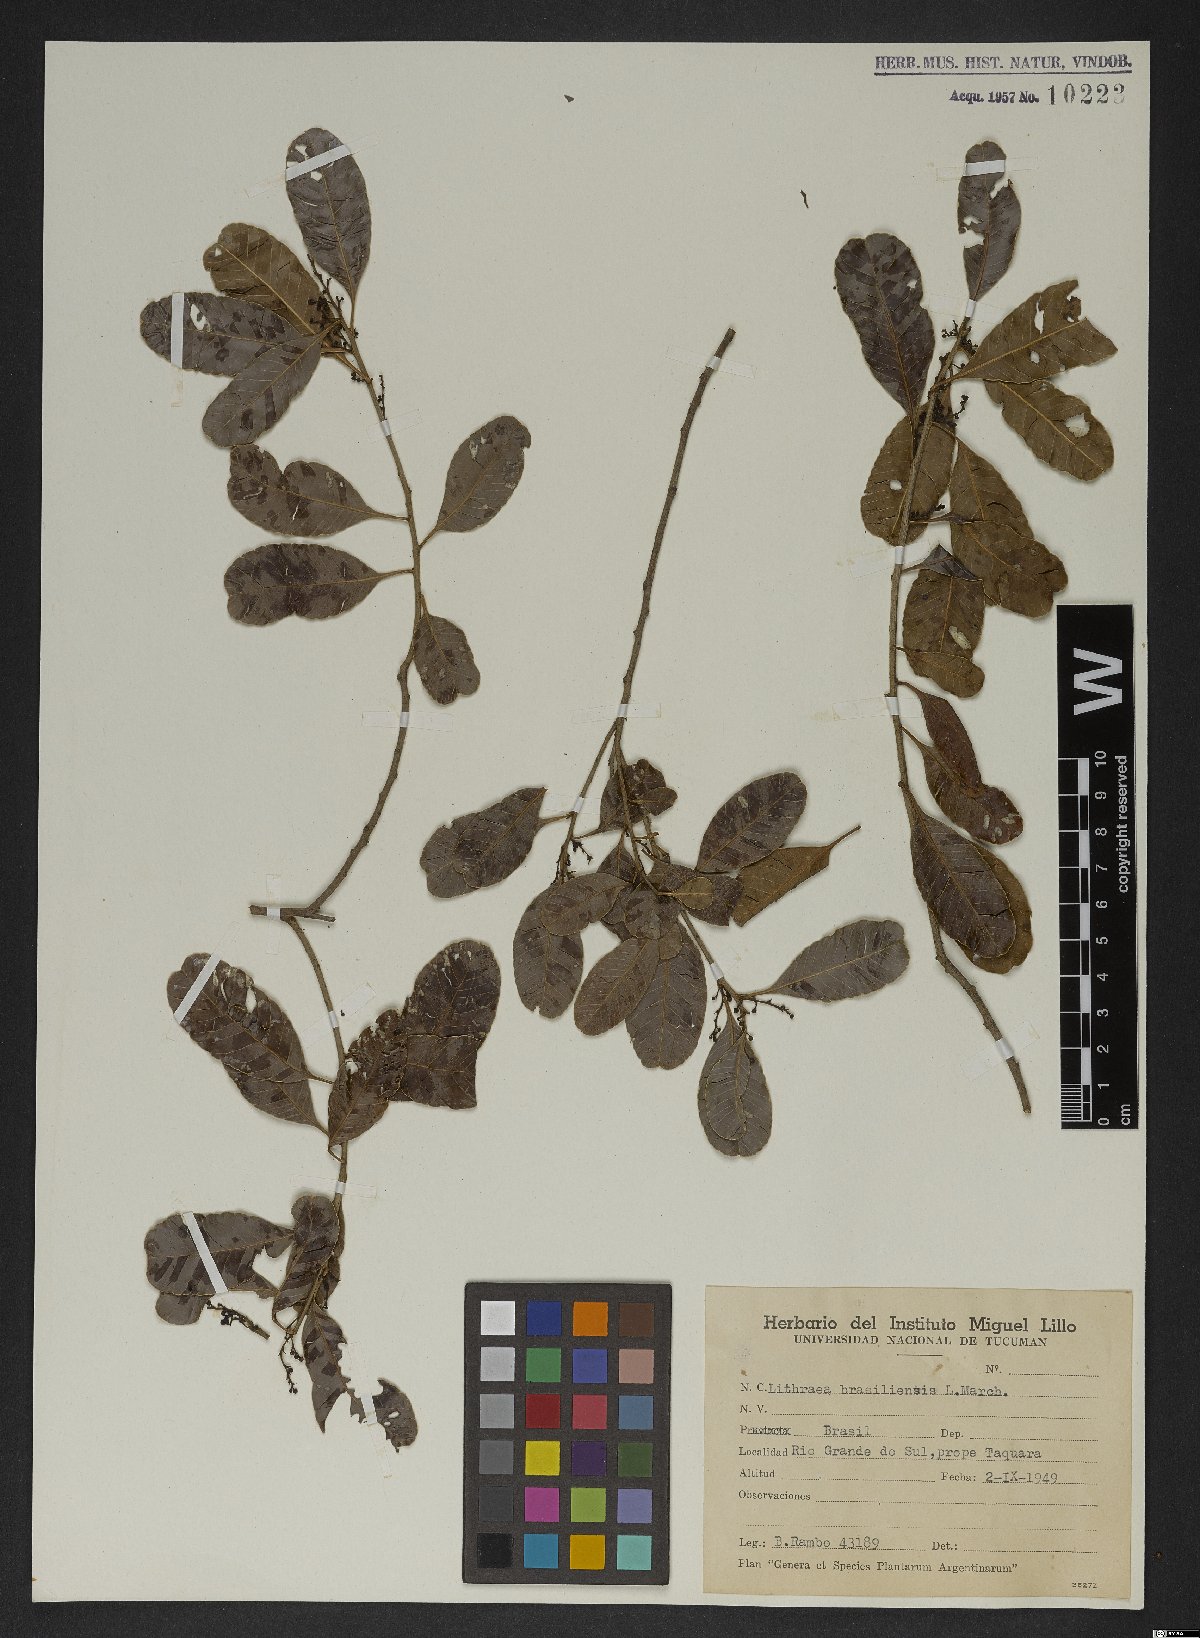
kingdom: Plantae
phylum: Tracheophyta
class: Magnoliopsida
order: Sapindales
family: Anacardiaceae
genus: Lithraea
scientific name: Lithraea brasiliensis
